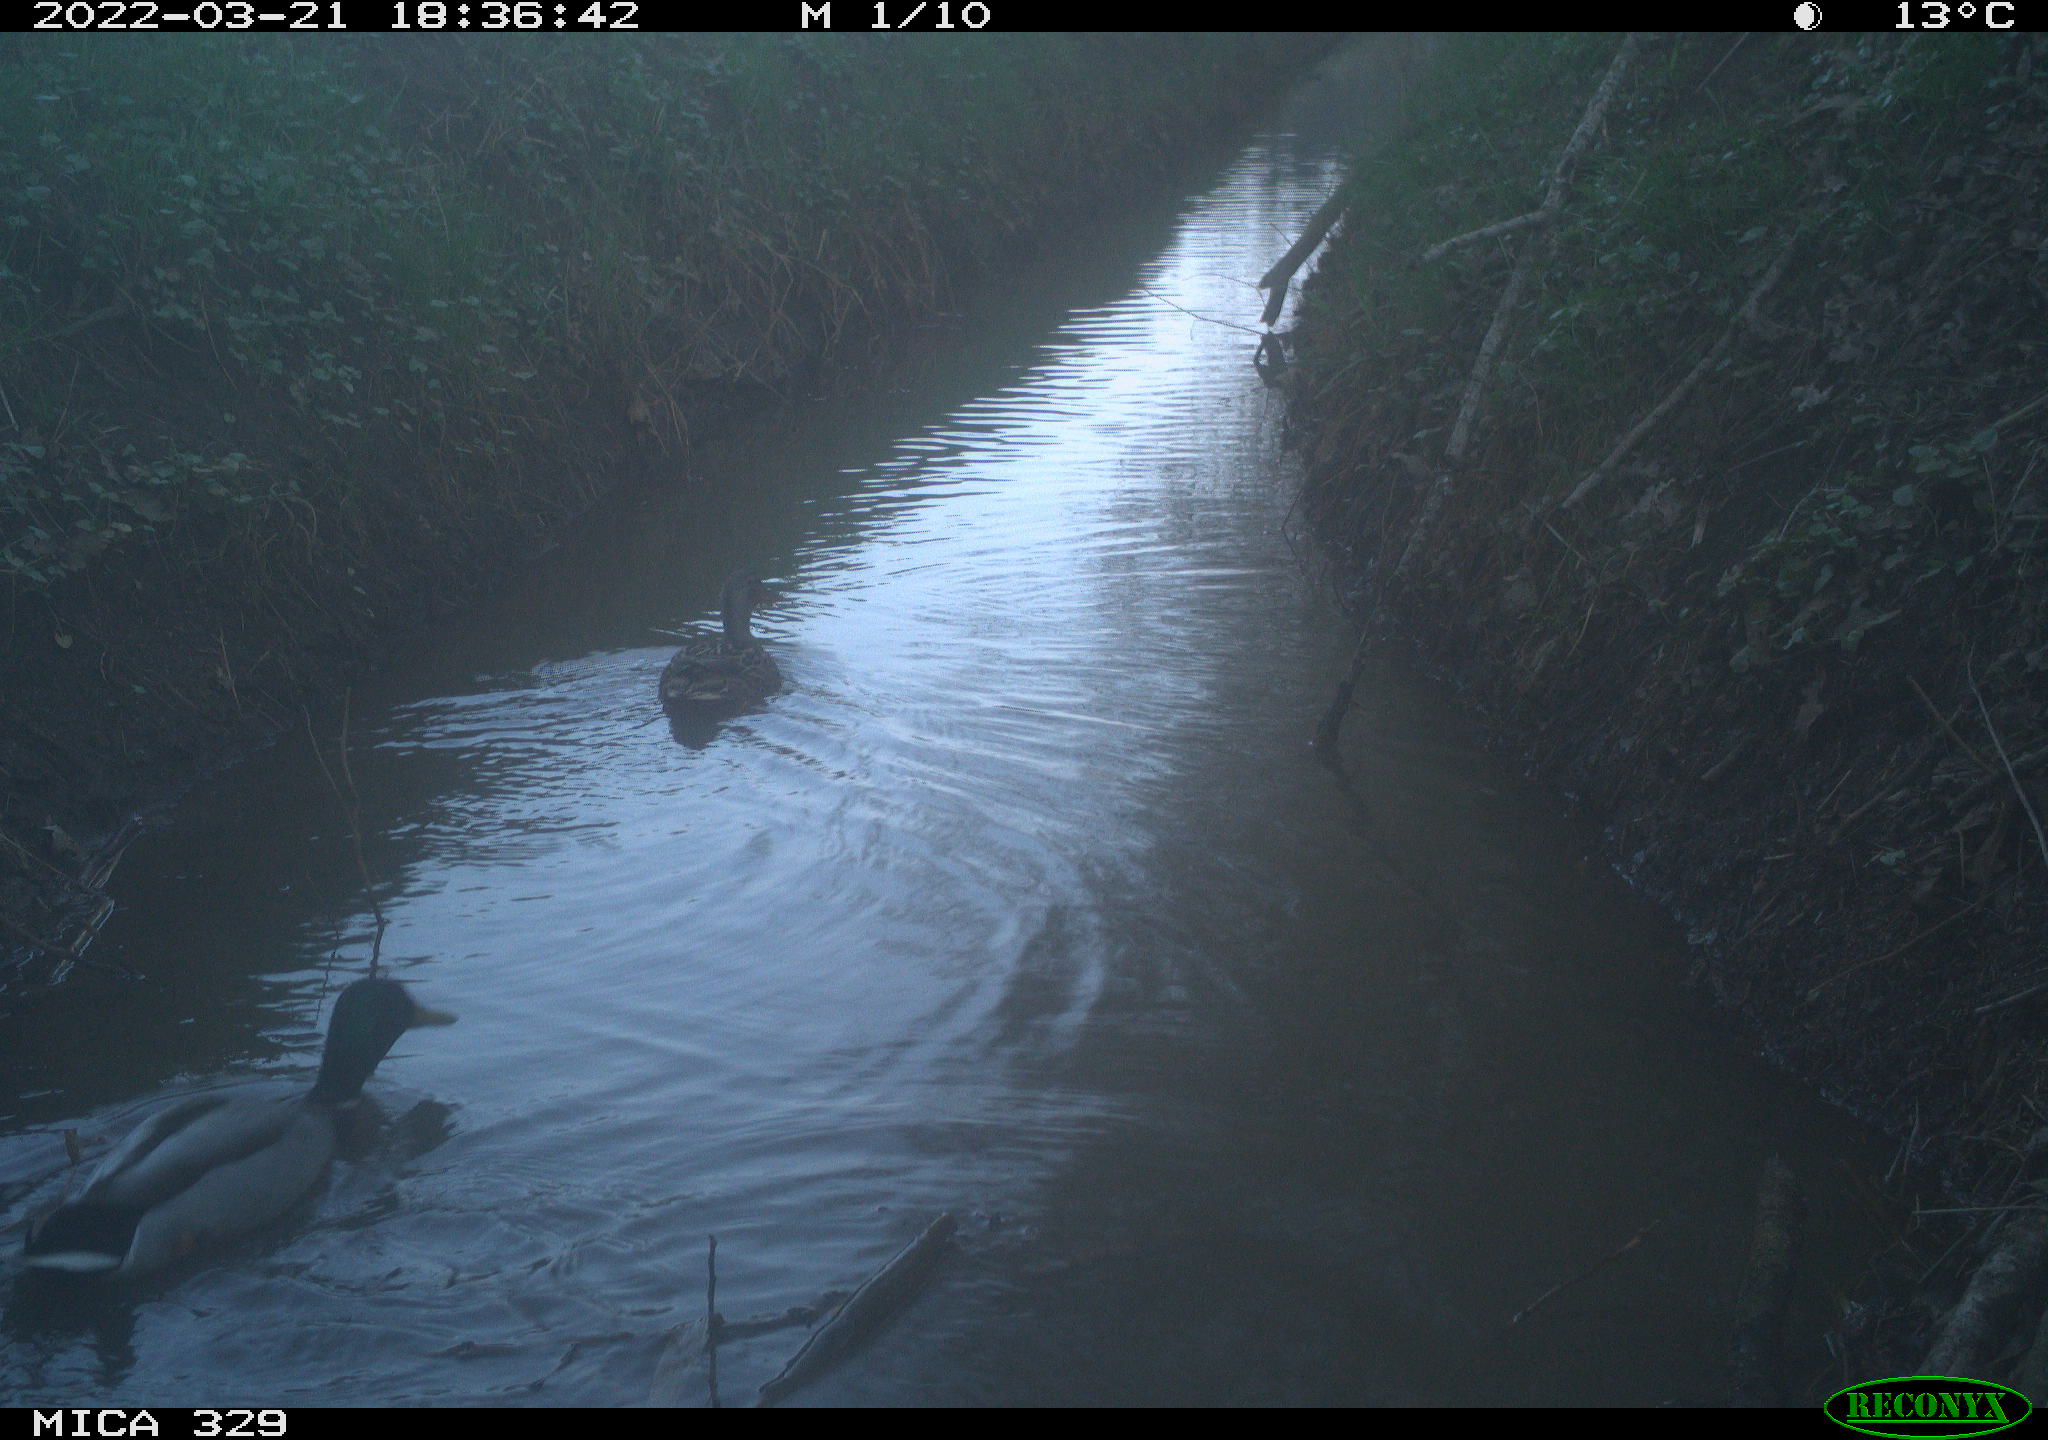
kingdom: Animalia
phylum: Chordata
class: Aves
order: Anseriformes
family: Anatidae
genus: Anas
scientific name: Anas platyrhynchos
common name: Mallard
